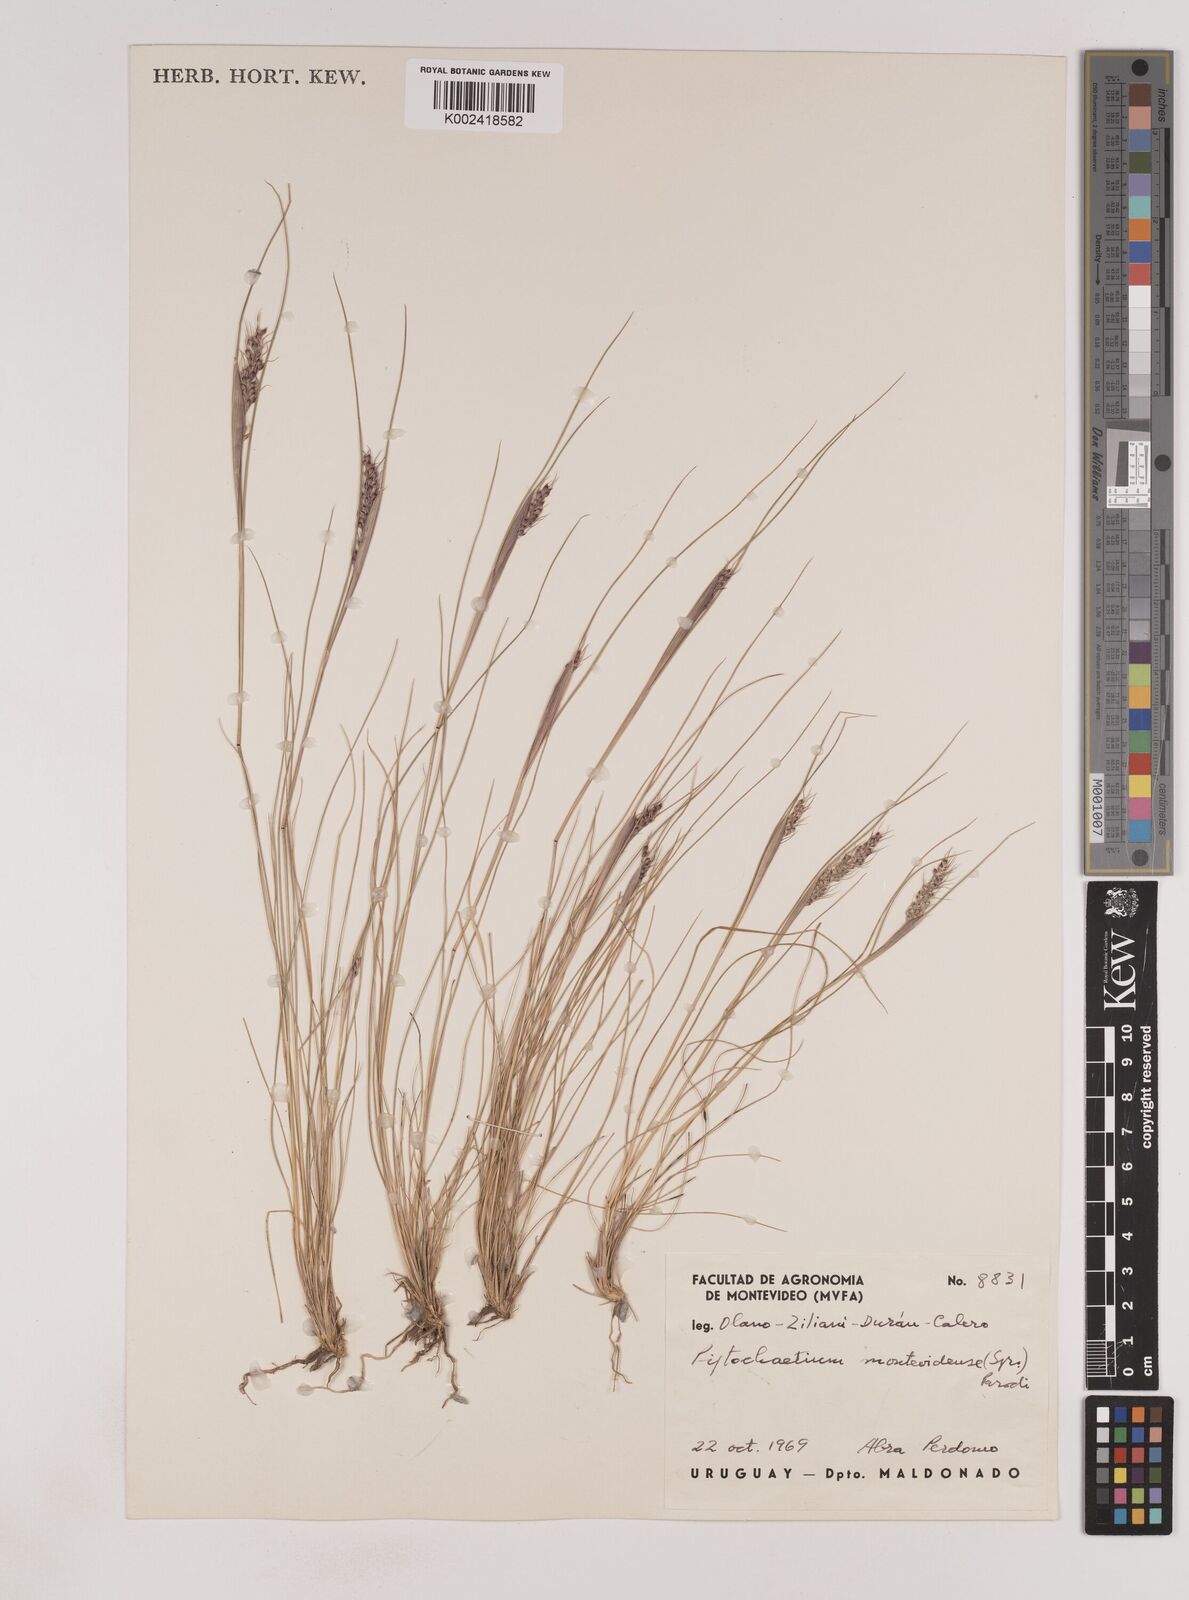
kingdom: Plantae
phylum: Tracheophyta
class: Liliopsida
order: Poales
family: Poaceae
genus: Piptochaetium
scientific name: Piptochaetium montevidense
